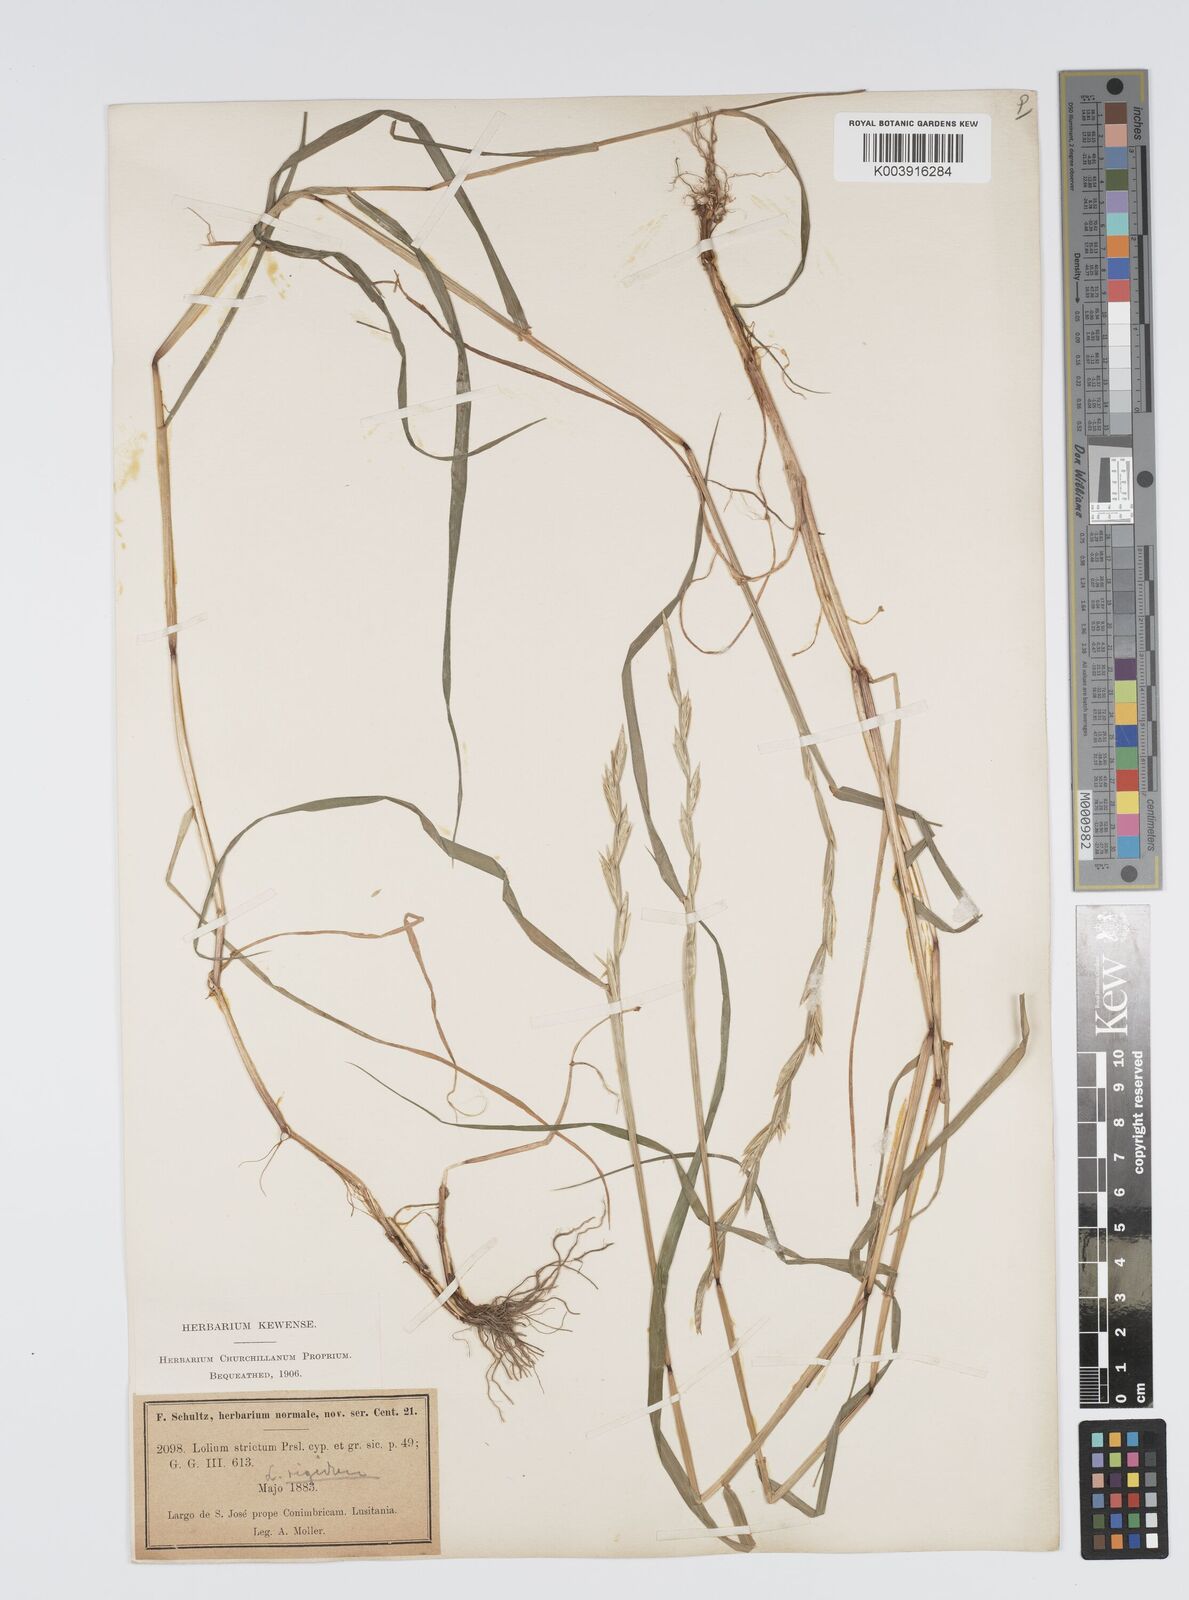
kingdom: Plantae
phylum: Tracheophyta
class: Liliopsida
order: Poales
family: Poaceae
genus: Lolium
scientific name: Lolium rigidum
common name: Wimmera ryegrass
